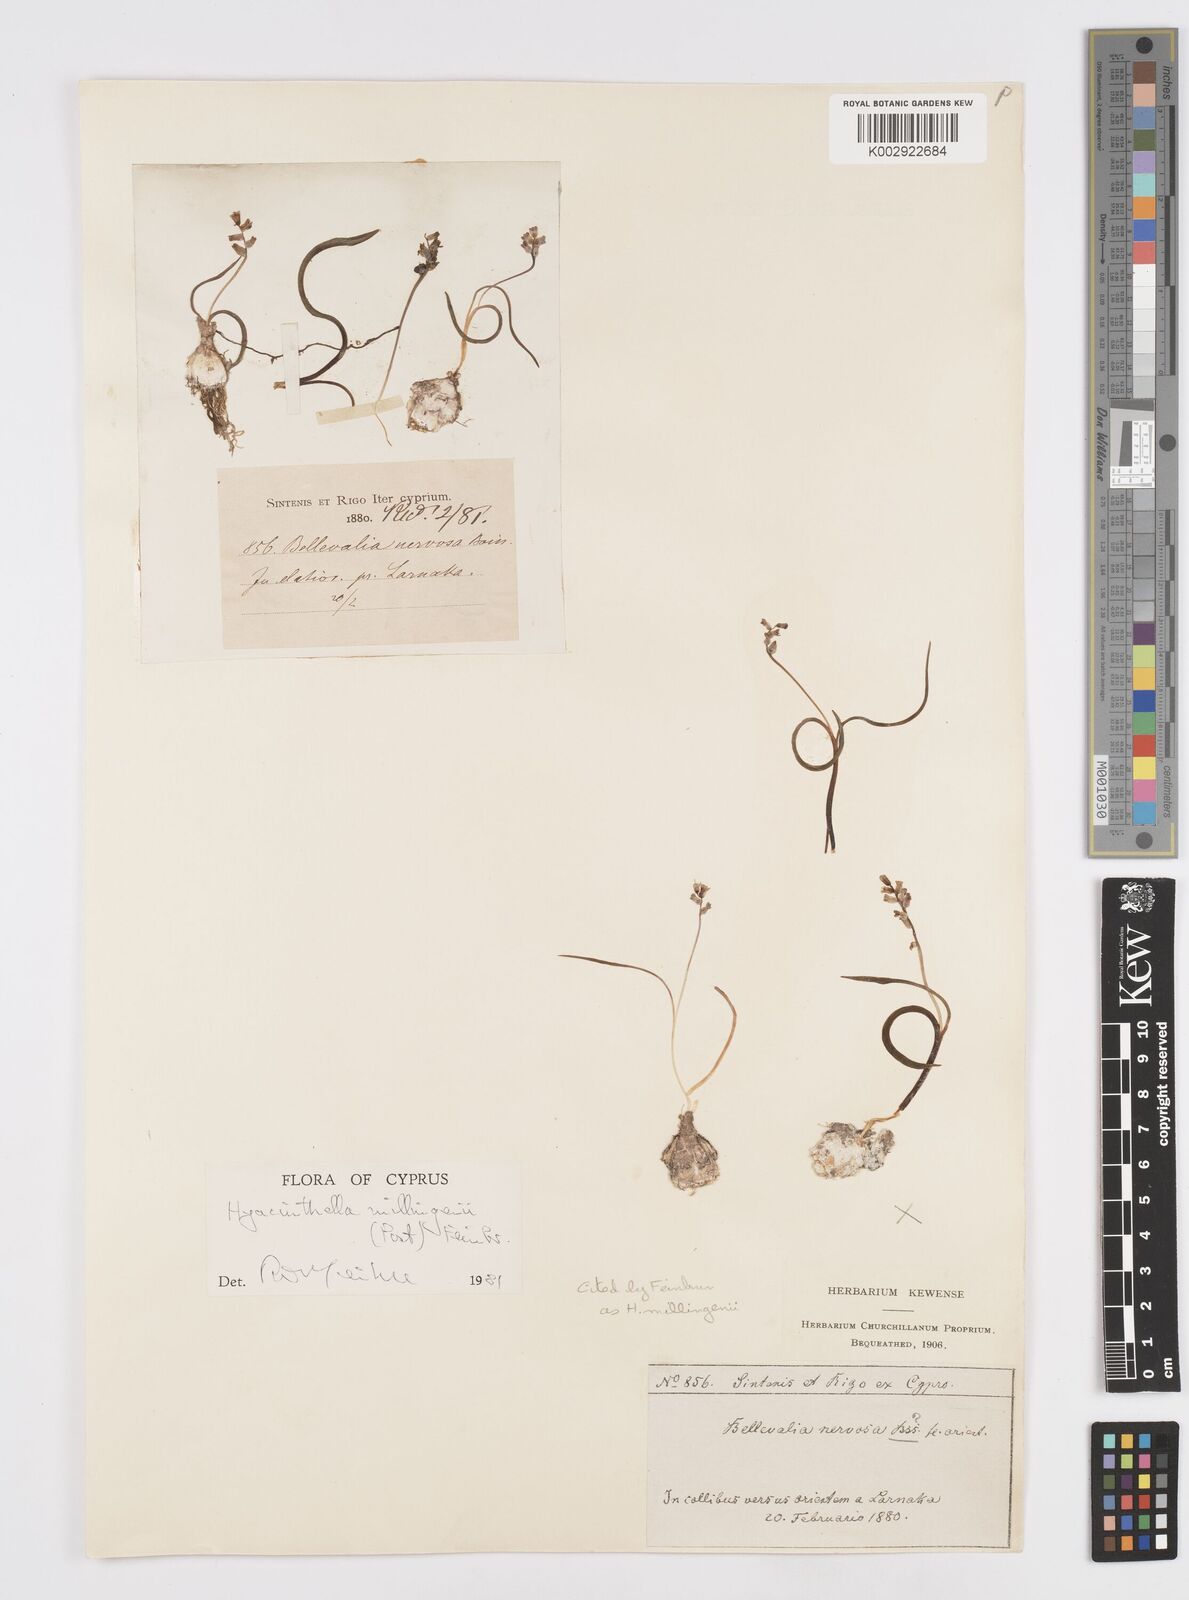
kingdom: Plantae
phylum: Tracheophyta
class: Liliopsida
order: Asparagales
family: Asparagaceae
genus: Hyacinthella
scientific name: Hyacinthella millingenii
